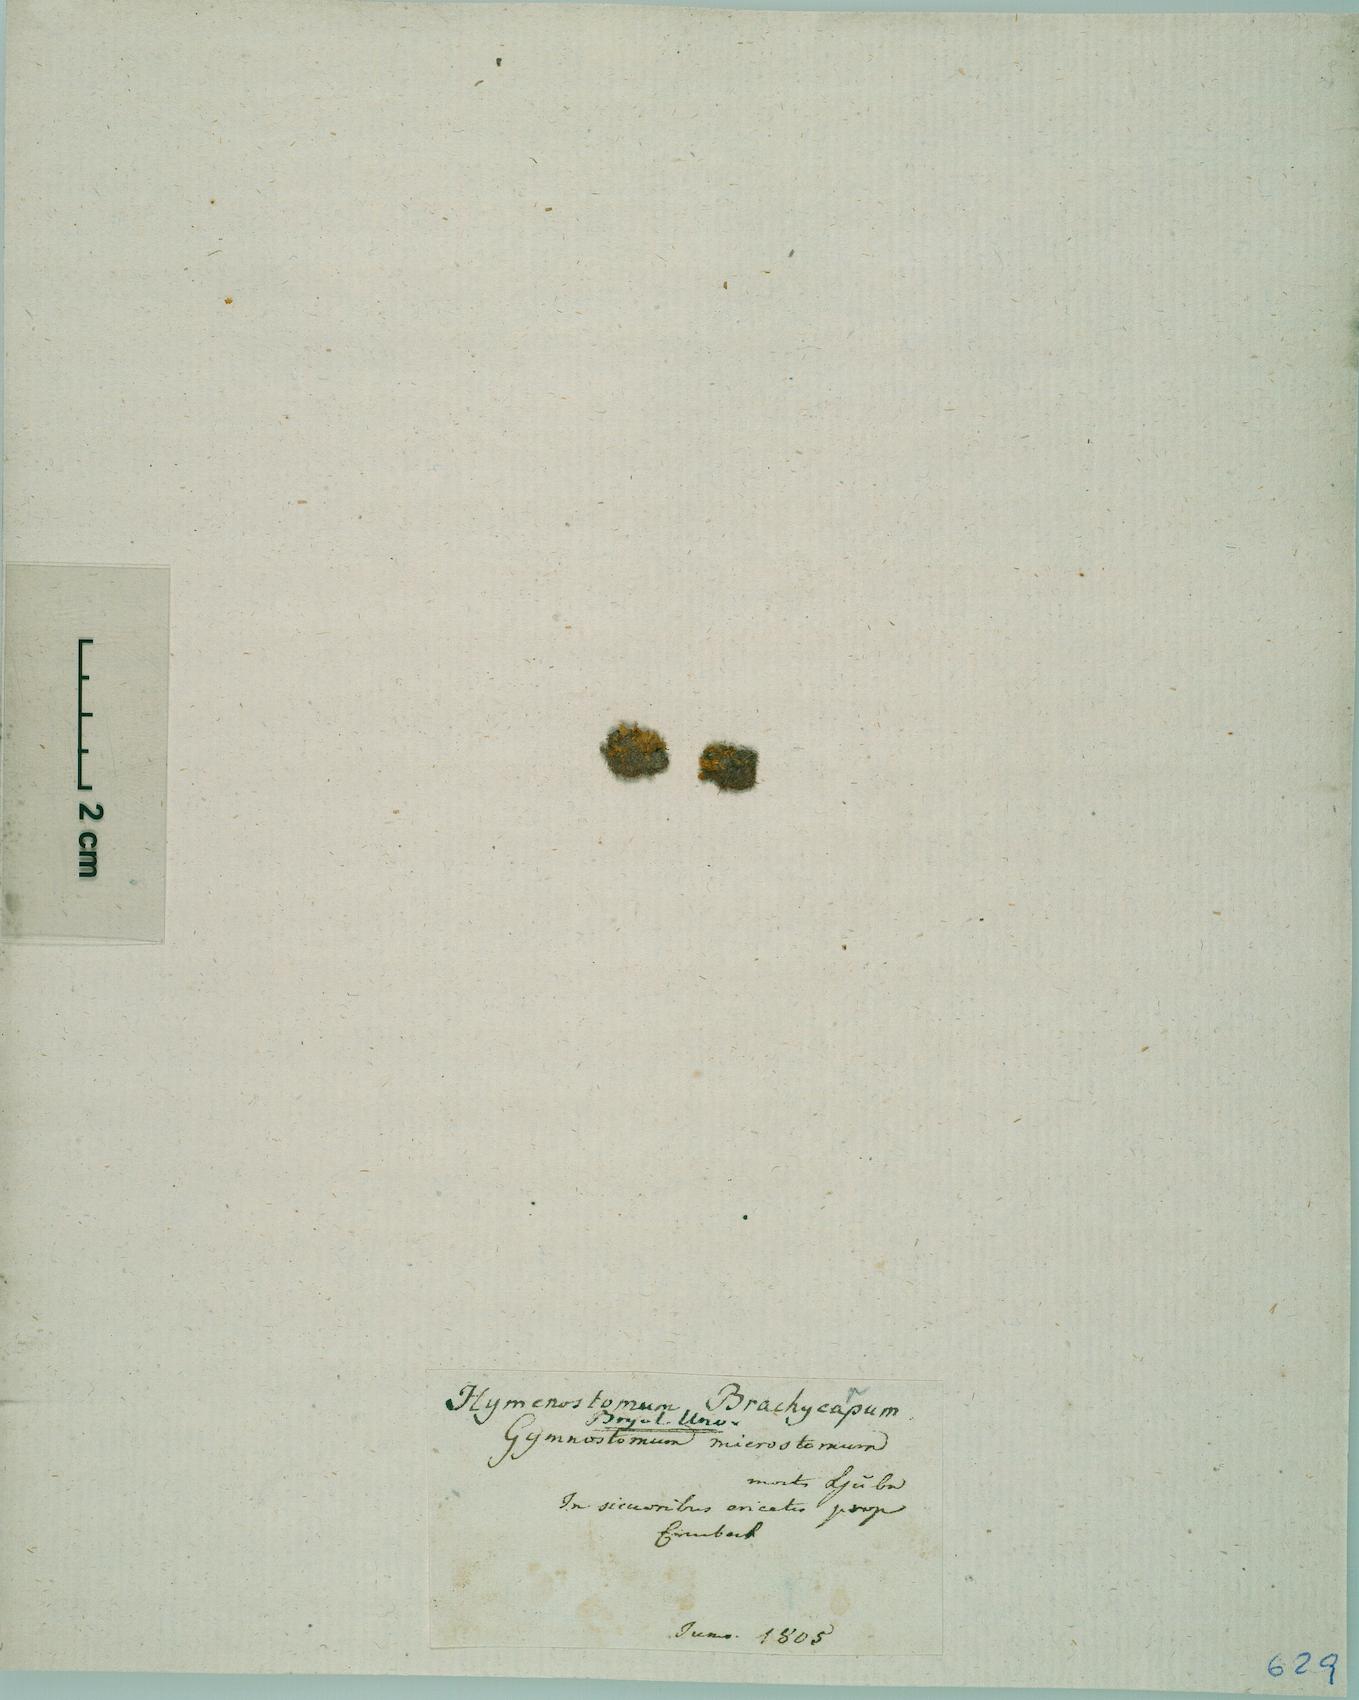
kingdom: Plantae
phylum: Bryophyta
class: Bryopsida
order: Pottiales
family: Pottiaceae
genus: Weissia
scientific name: Weissia brachycarpa
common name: Small-mouthed beardless-moss
